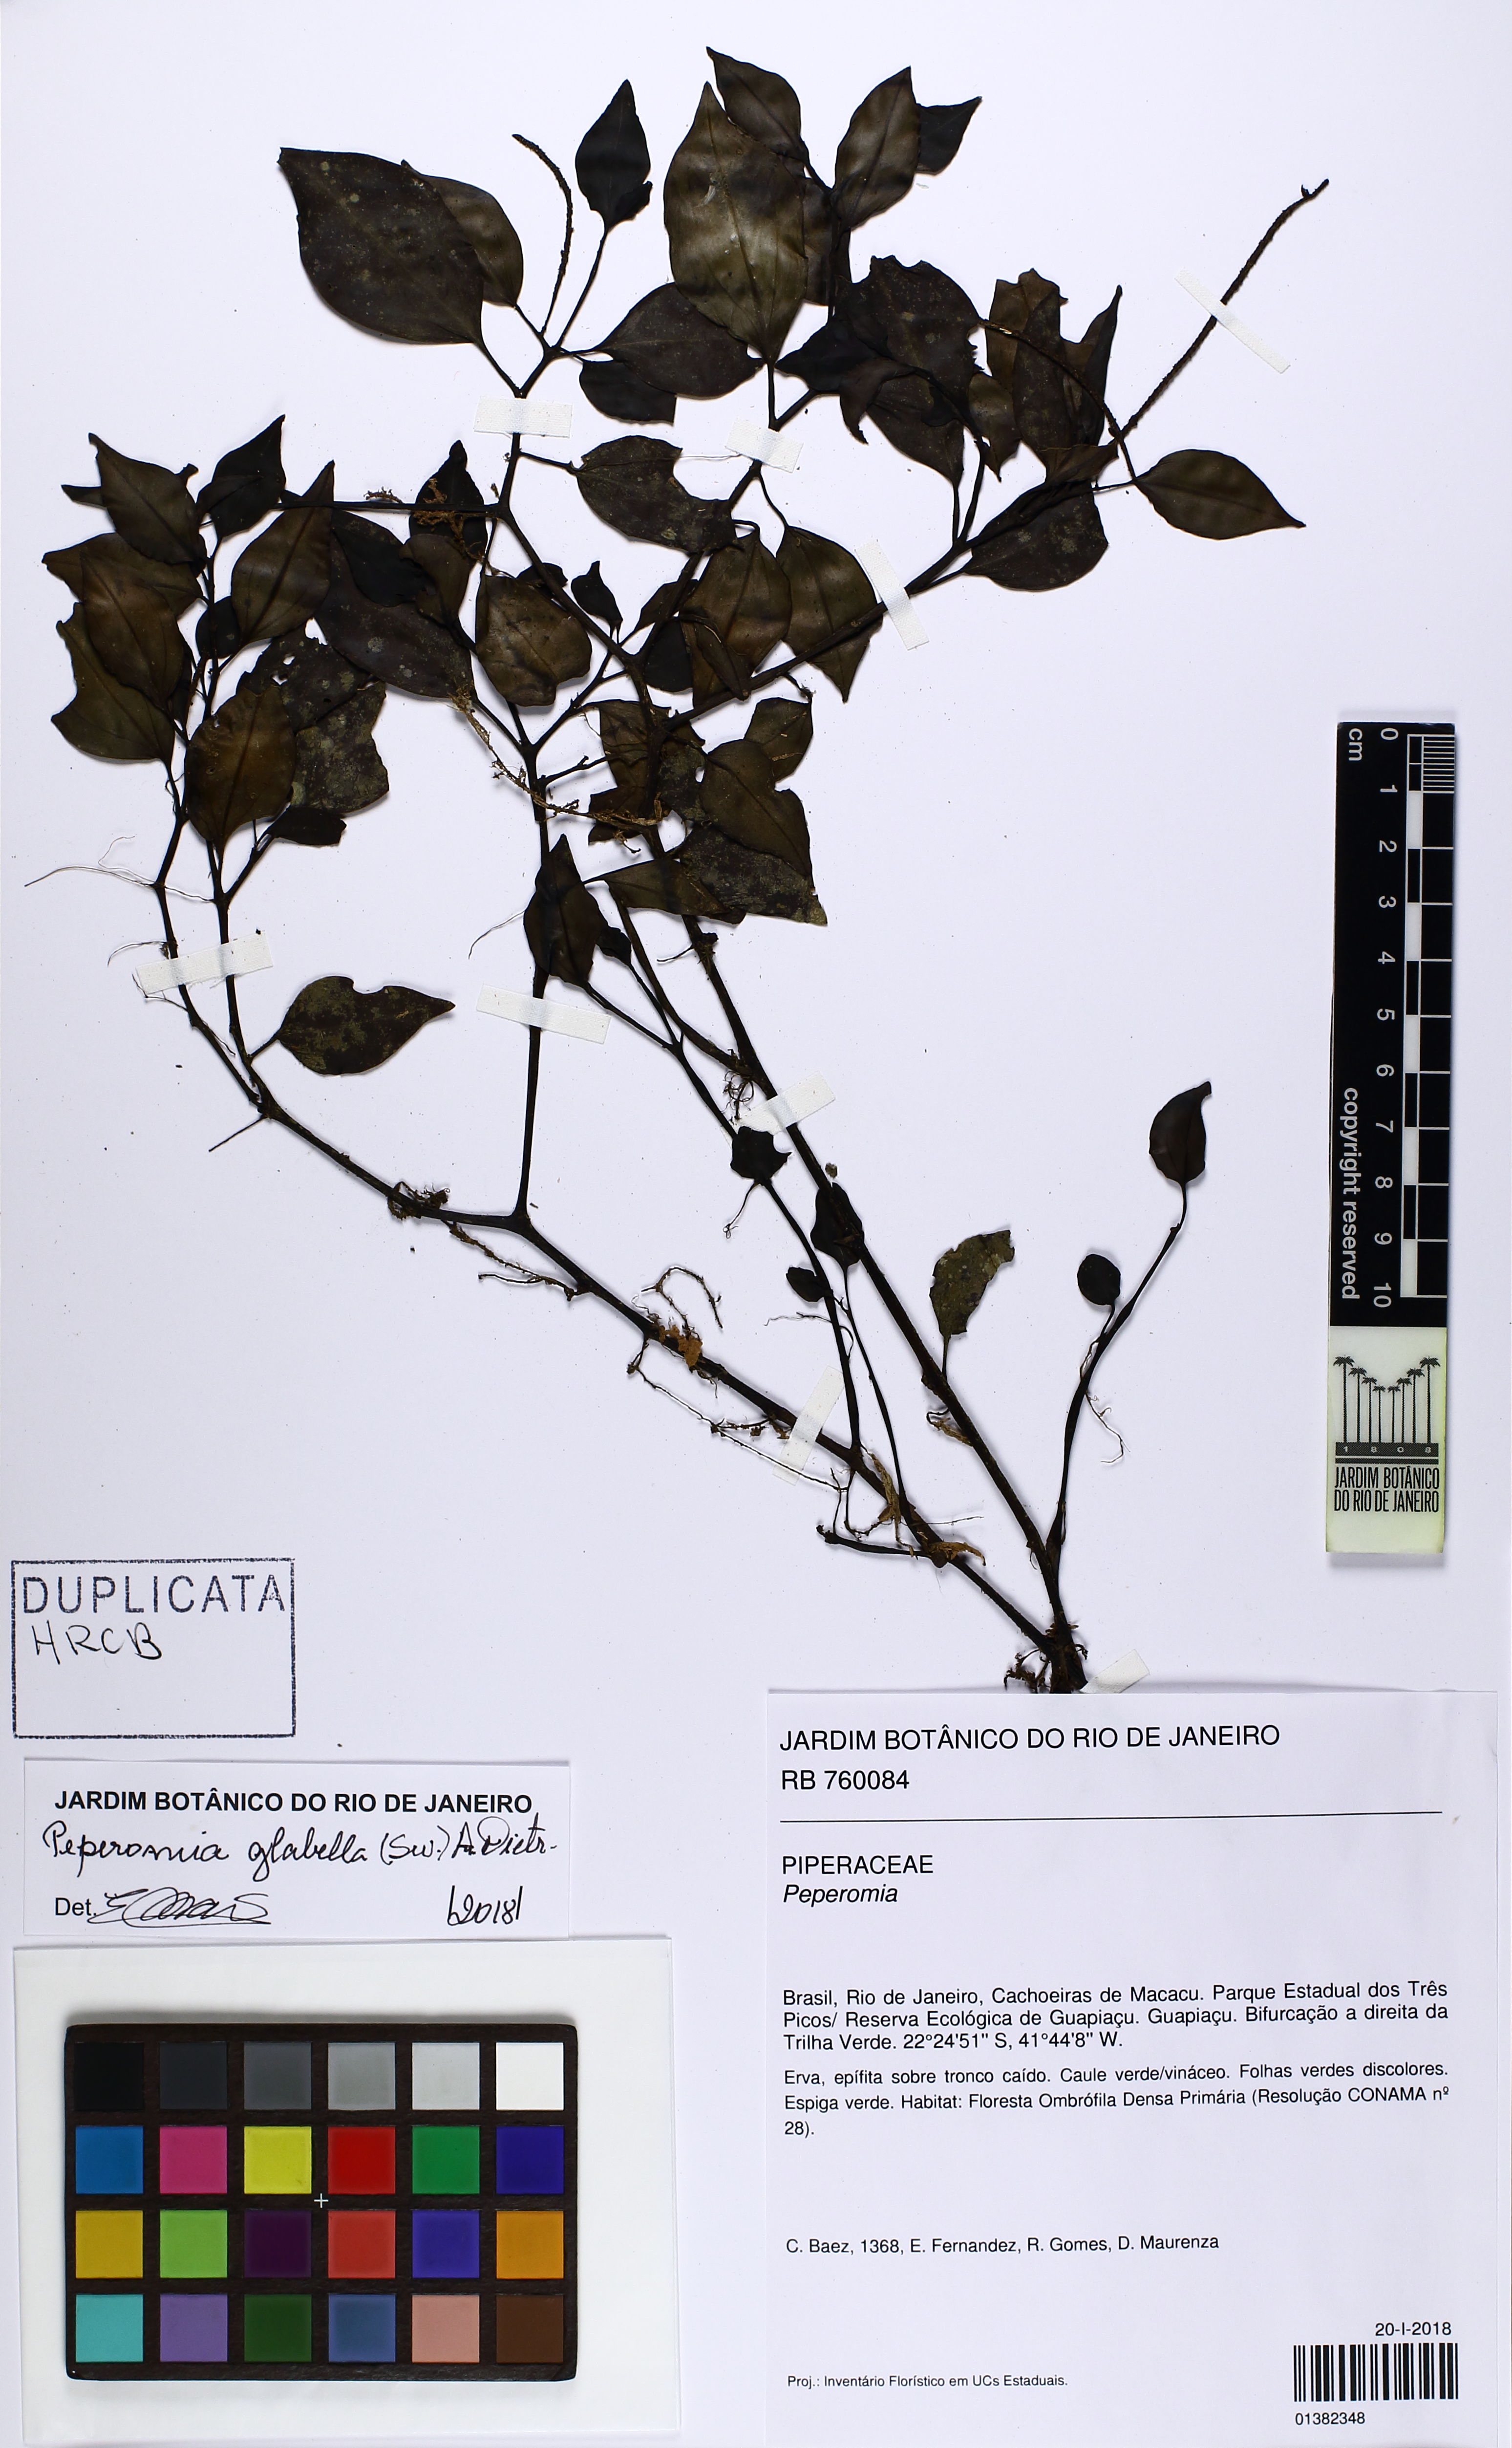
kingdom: Plantae
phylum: Tracheophyta
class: Magnoliopsida
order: Piperales
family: Piperaceae
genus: Peperomia
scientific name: Peperomia glabella
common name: Cypress peperomia
